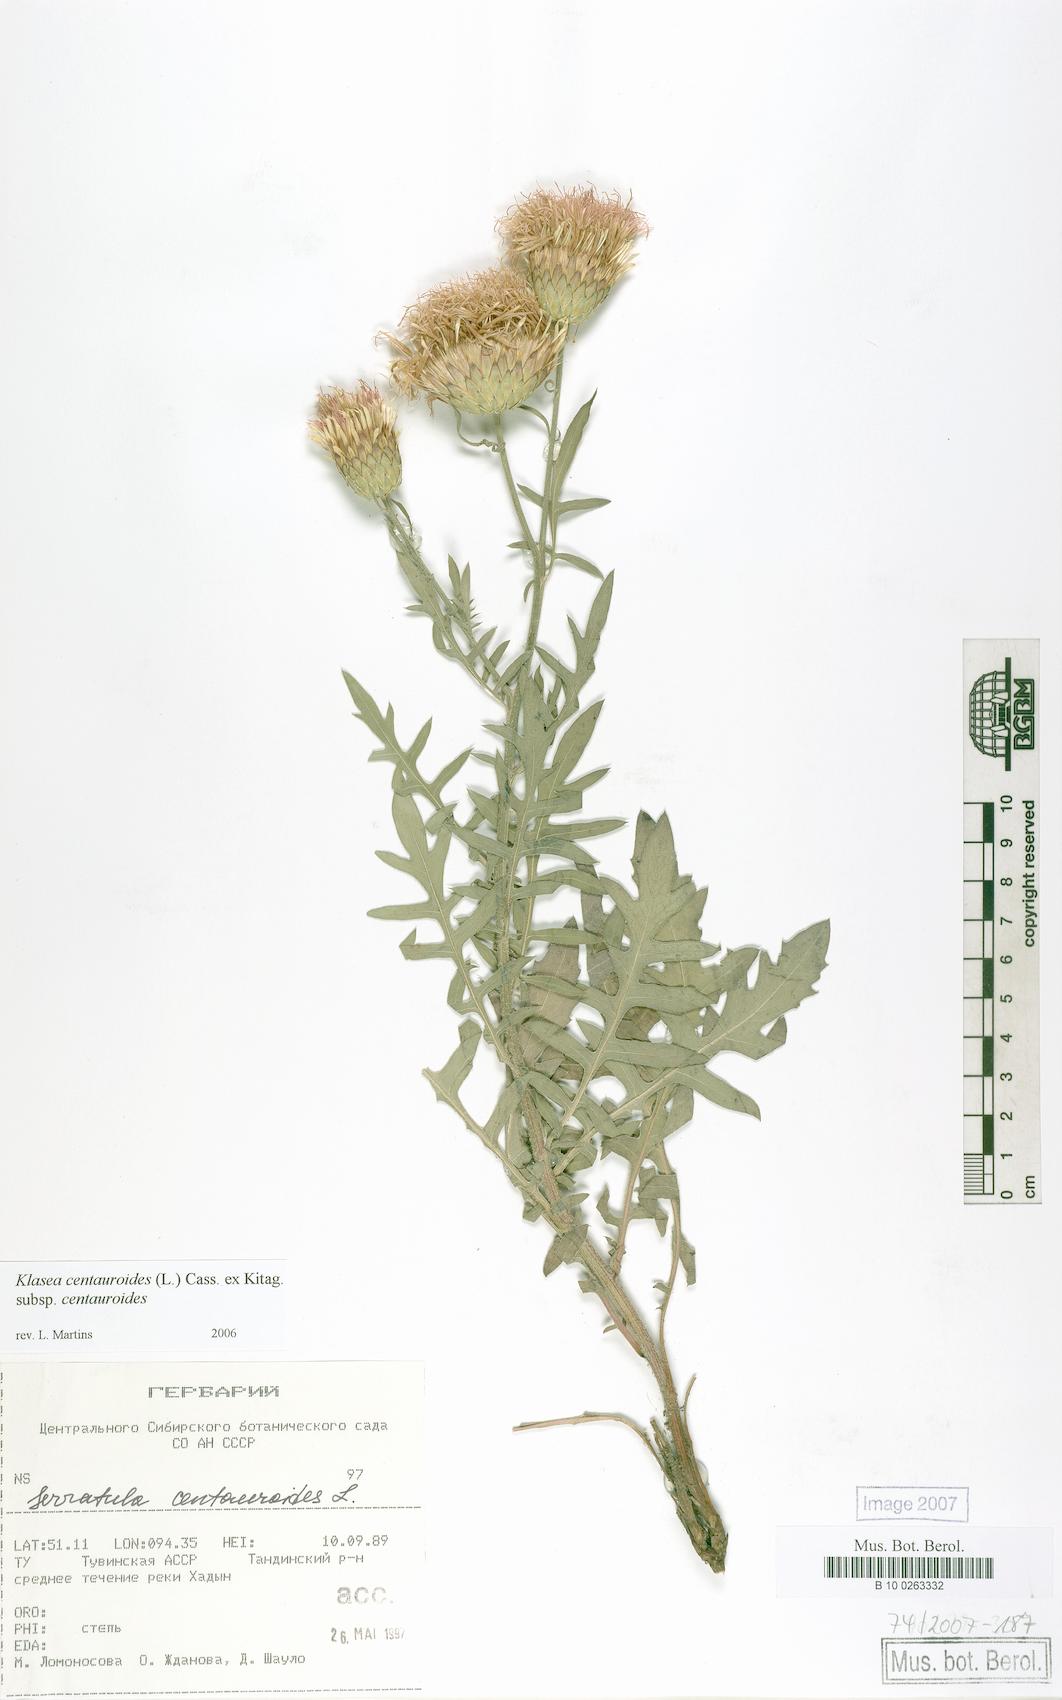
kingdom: Plantae
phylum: Tracheophyta
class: Magnoliopsida
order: Asterales
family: Asteraceae
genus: Klasea
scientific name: Klasea centauroides
